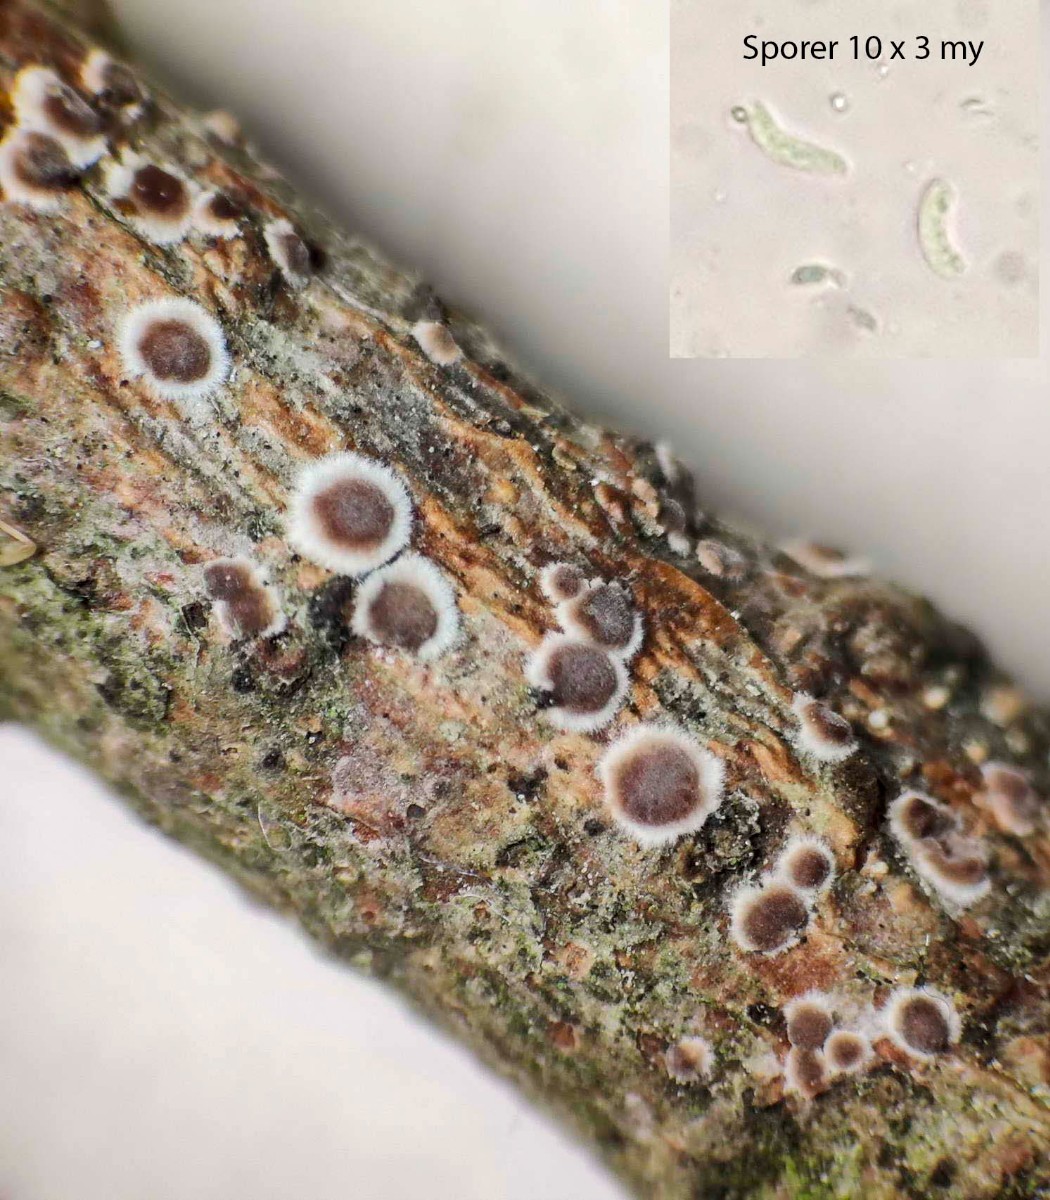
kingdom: Fungi
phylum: Basidiomycota
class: Agaricomycetes
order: Russulales
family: Peniophoraceae
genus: Peniophora
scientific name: Peniophora pini
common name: fyrre-voksskind
